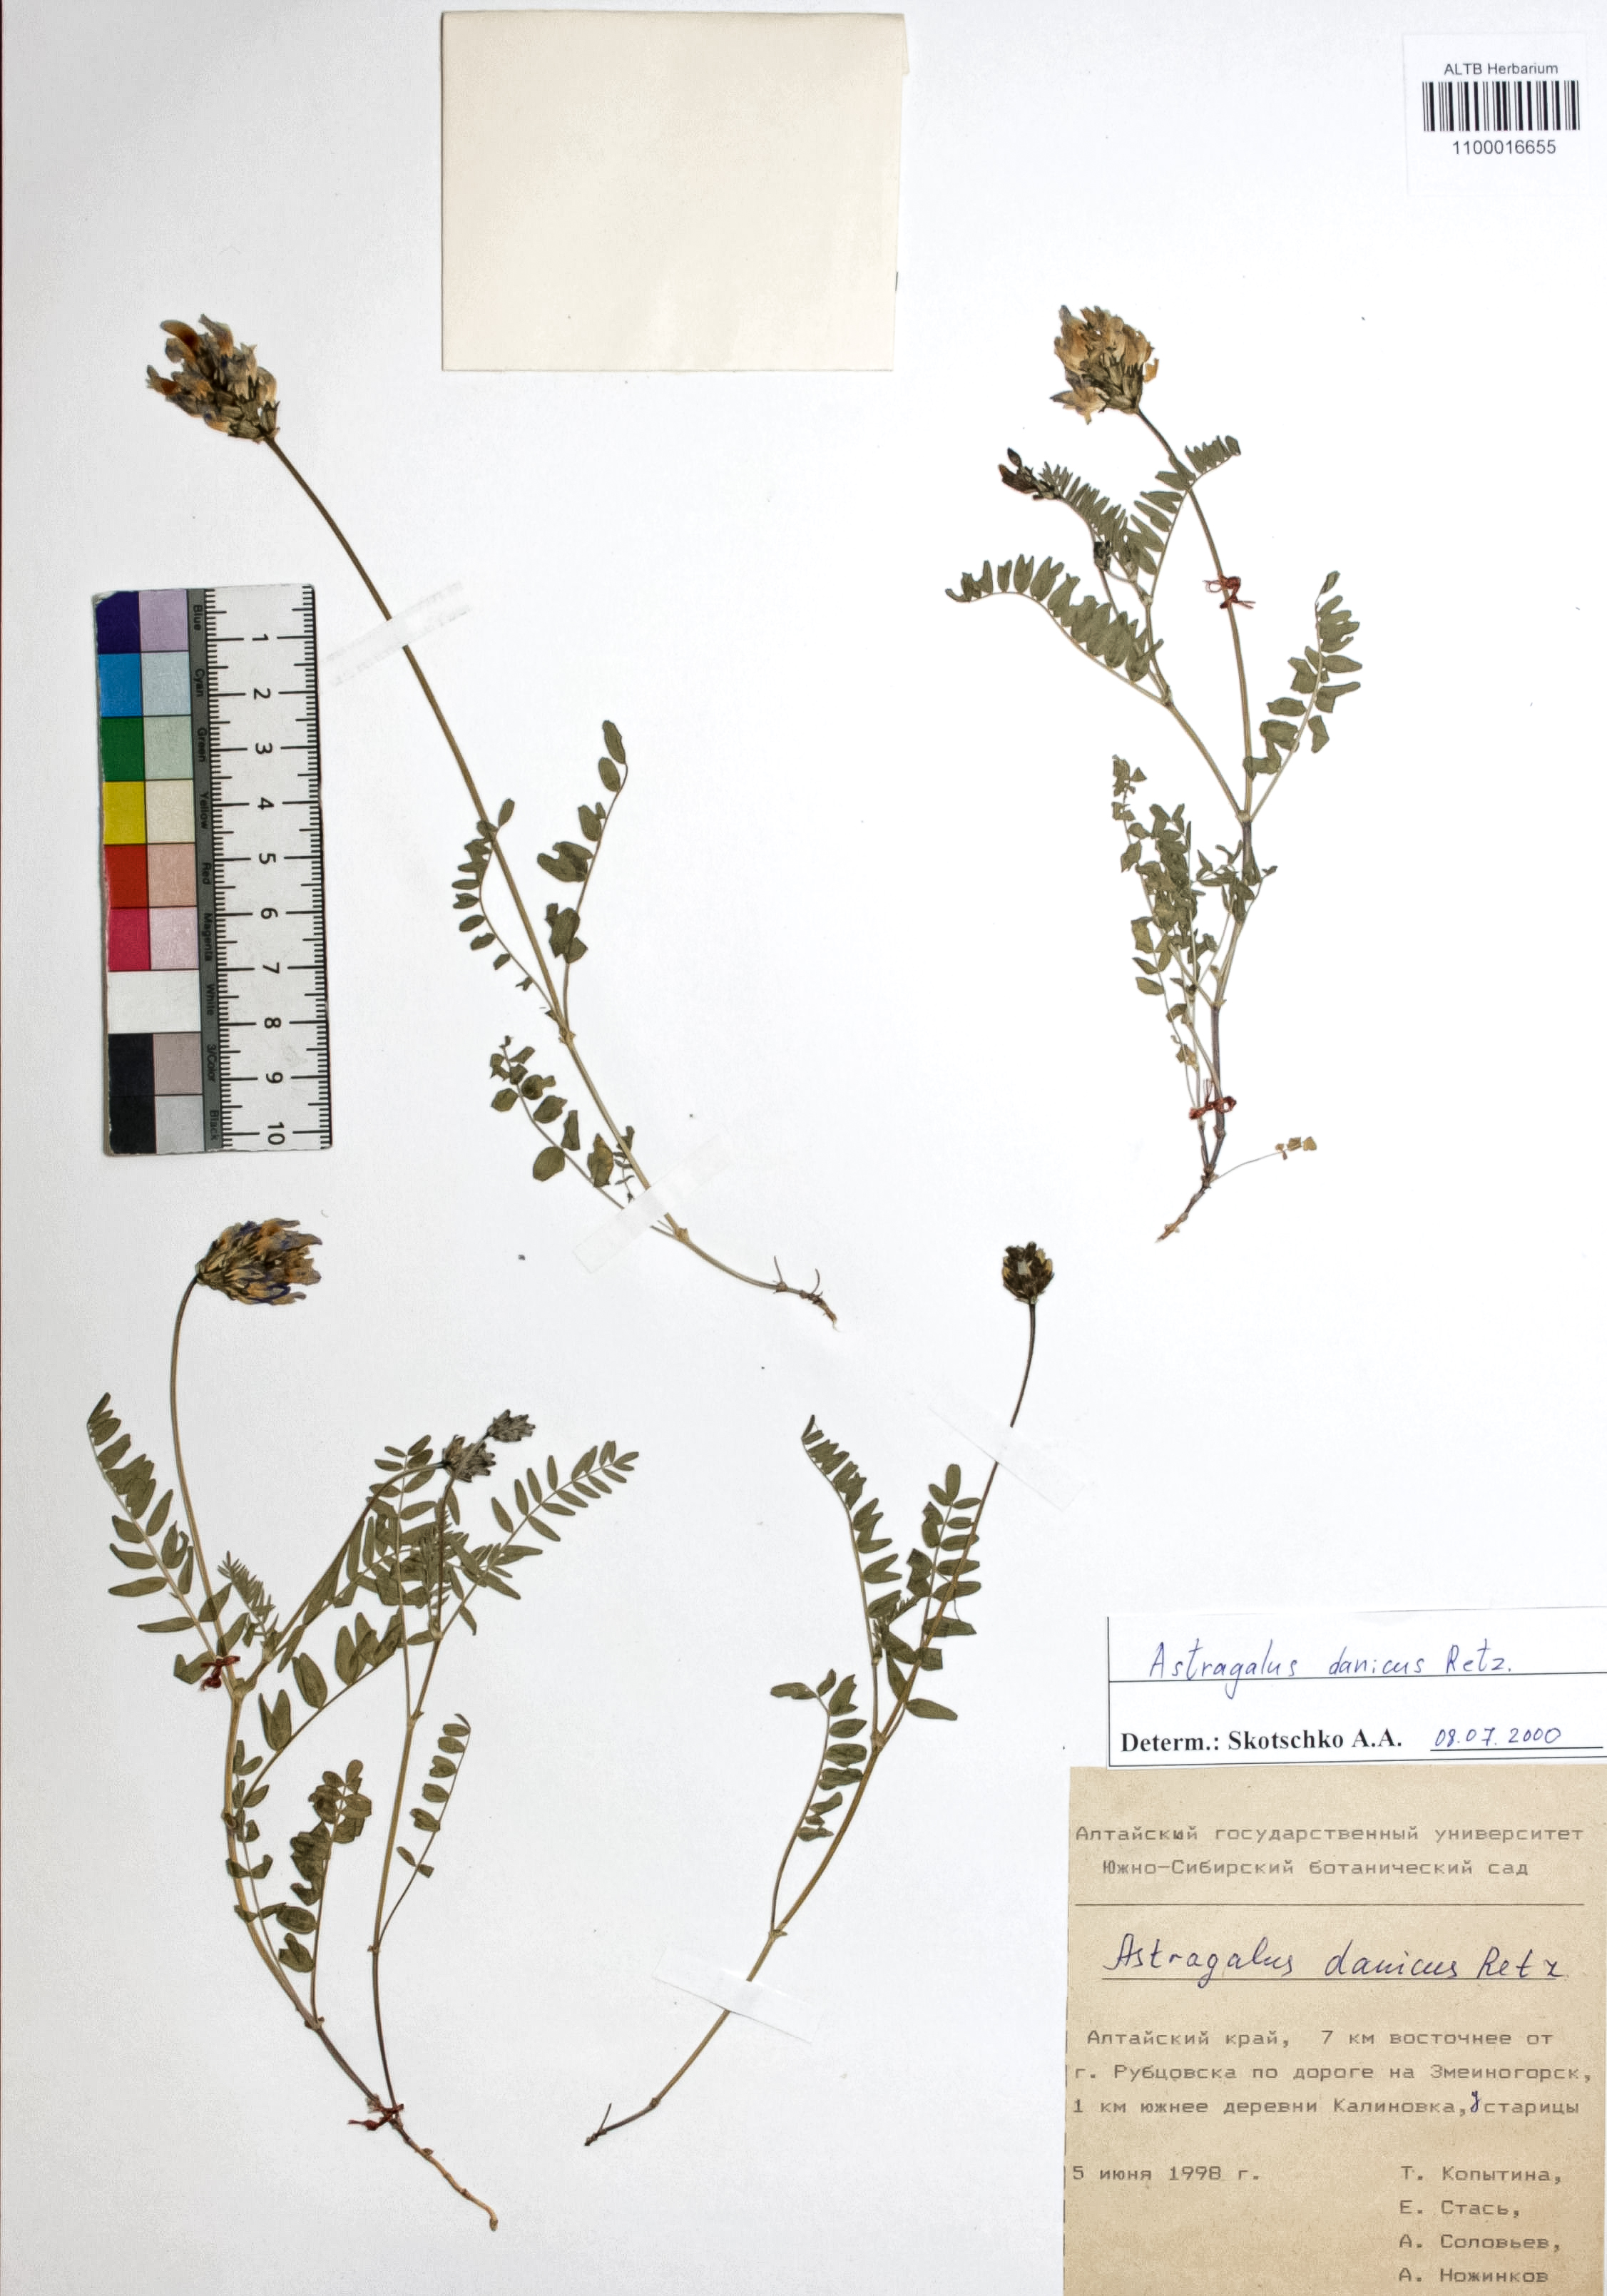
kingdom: Plantae
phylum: Tracheophyta
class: Magnoliopsida
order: Fabales
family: Fabaceae
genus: Astragalus
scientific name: Astragalus danicus
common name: Purple milk-vetch
